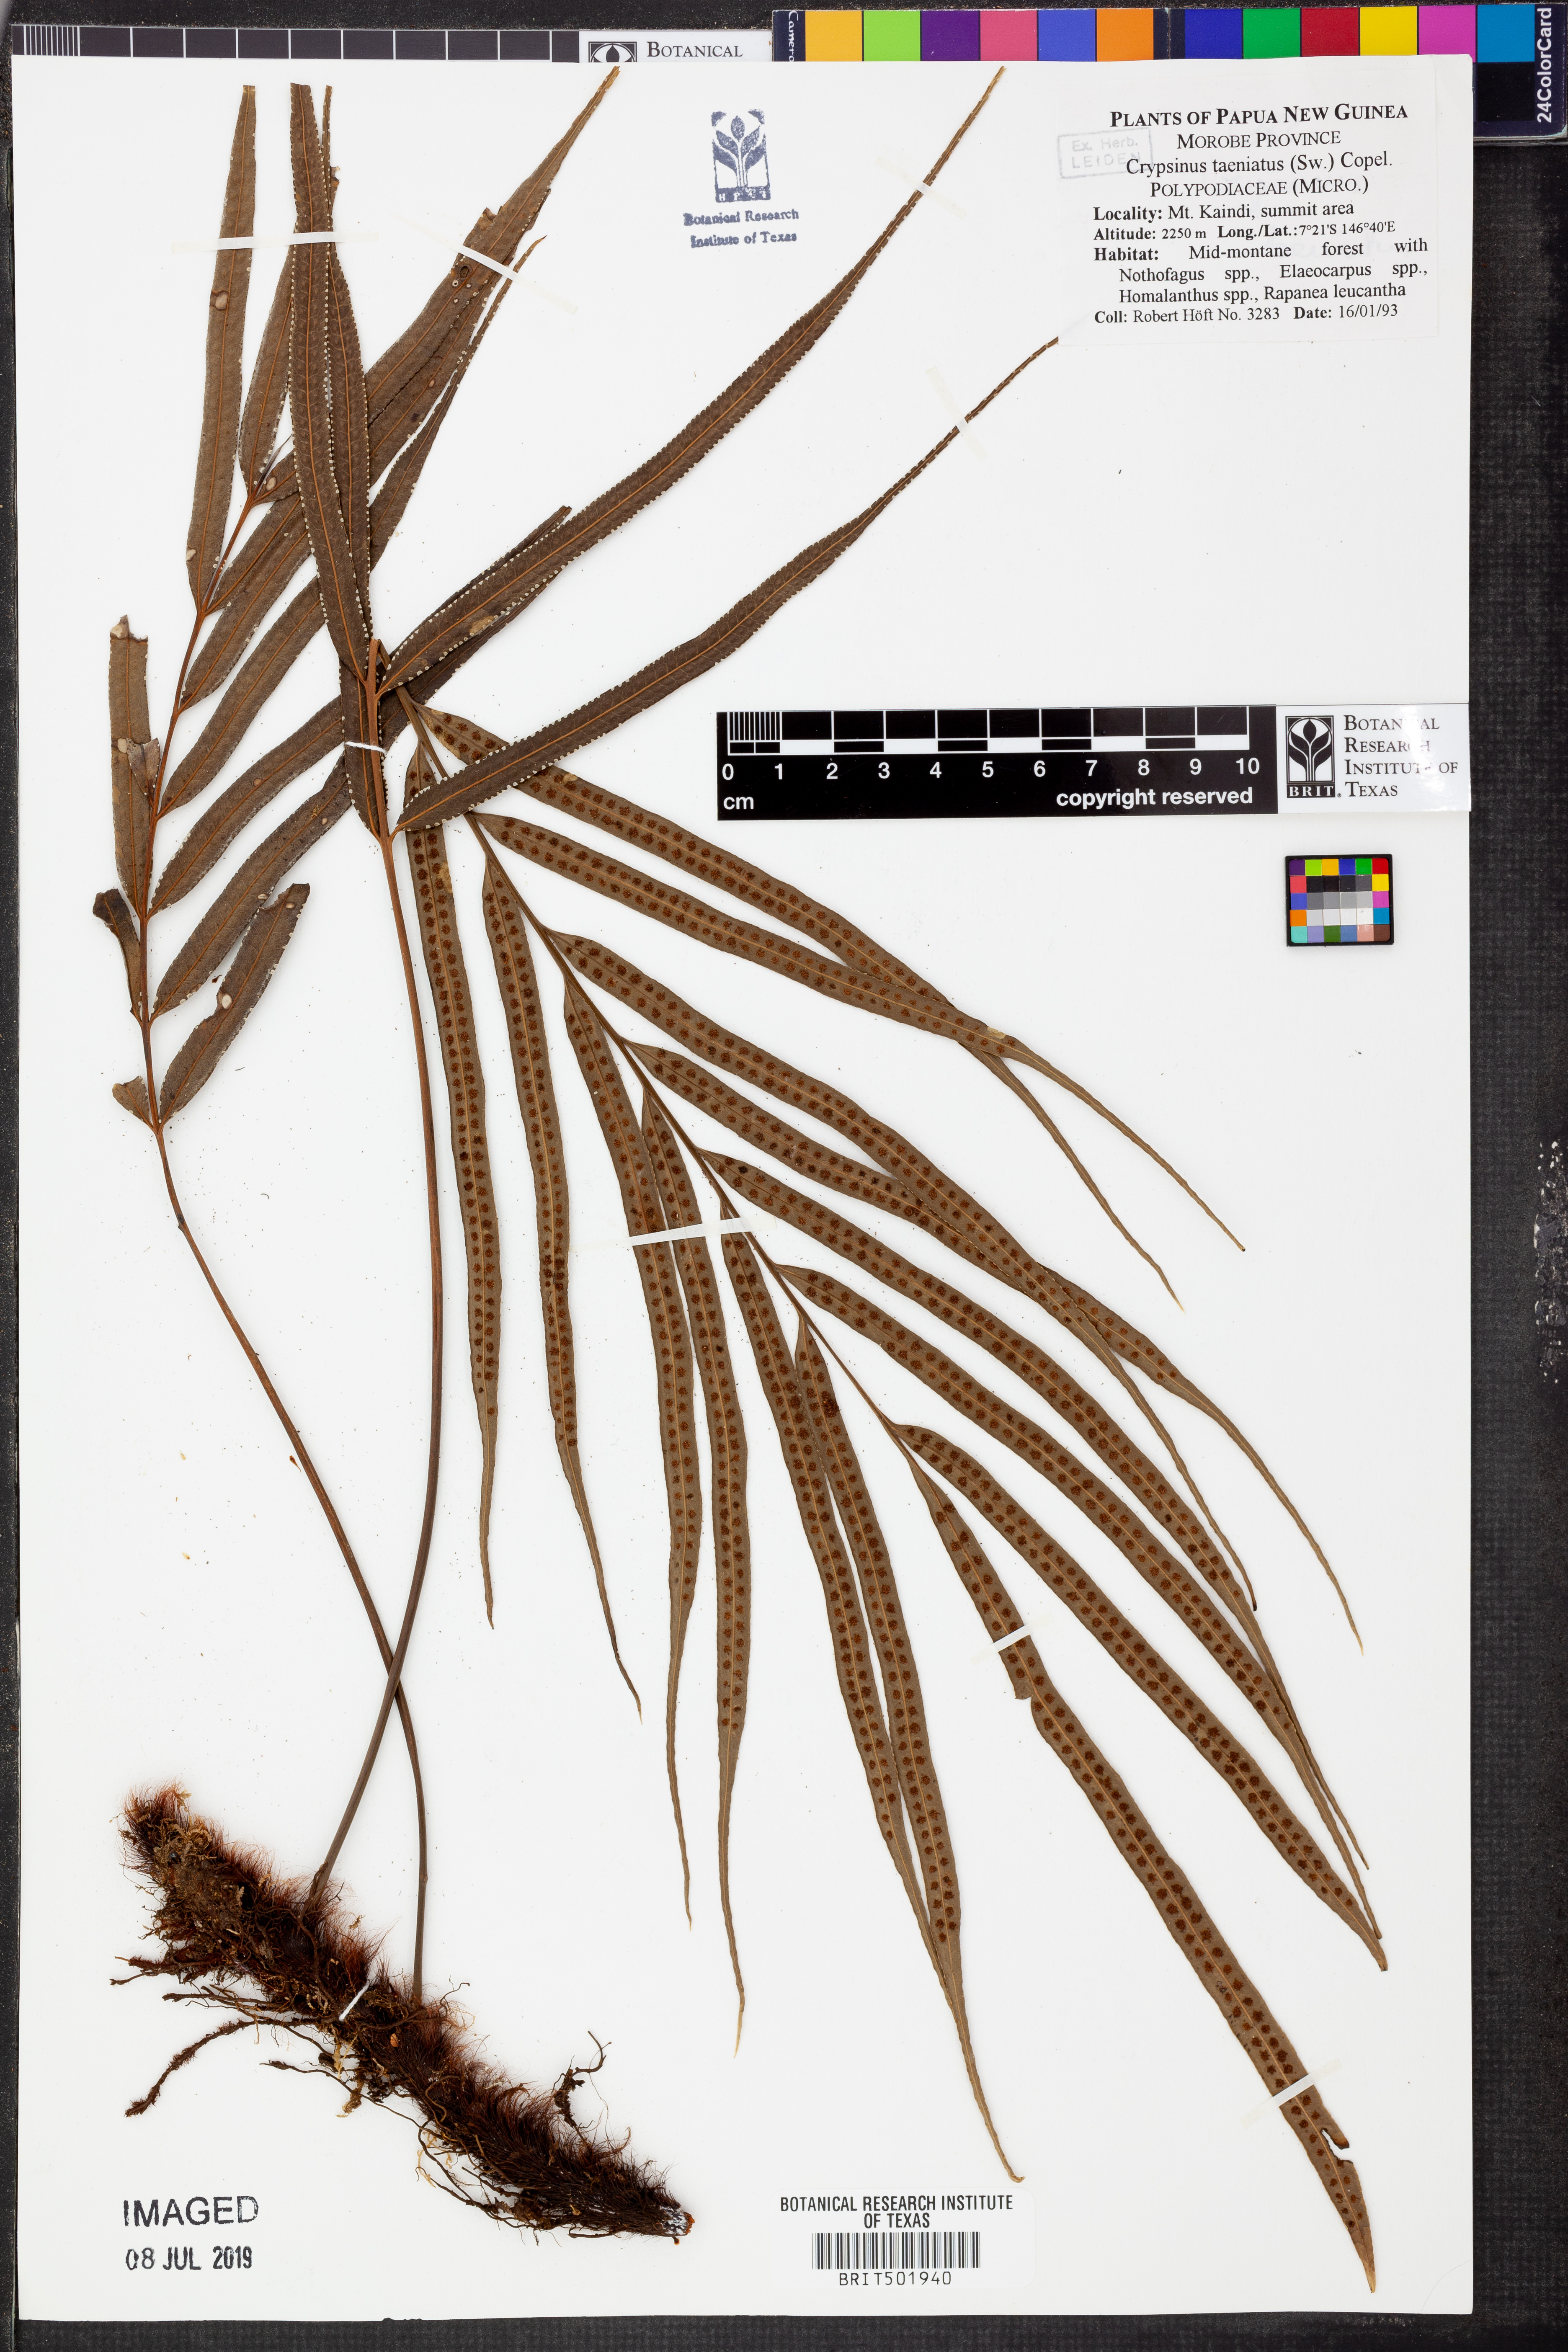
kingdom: Plantae
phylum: Tracheophyta
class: Polypodiopsida
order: Polypodiales
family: Polypodiaceae
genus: Selliguea
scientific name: Selliguea taeniata
